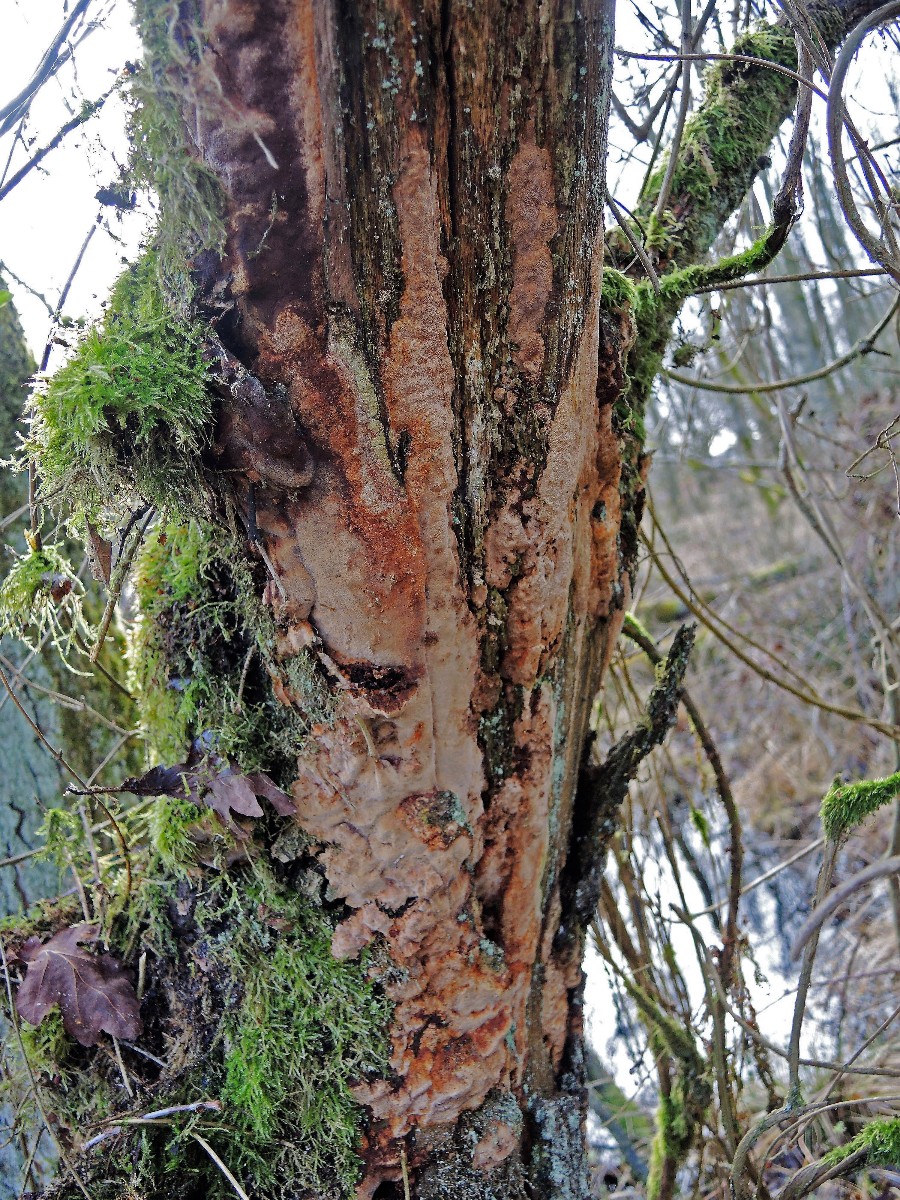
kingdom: Fungi
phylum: Basidiomycota
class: Agaricomycetes
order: Hymenochaetales
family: Hymenochaetaceae
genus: Fuscoporia
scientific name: Fuscoporia ferrea
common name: skorpe-ildporesvamp
